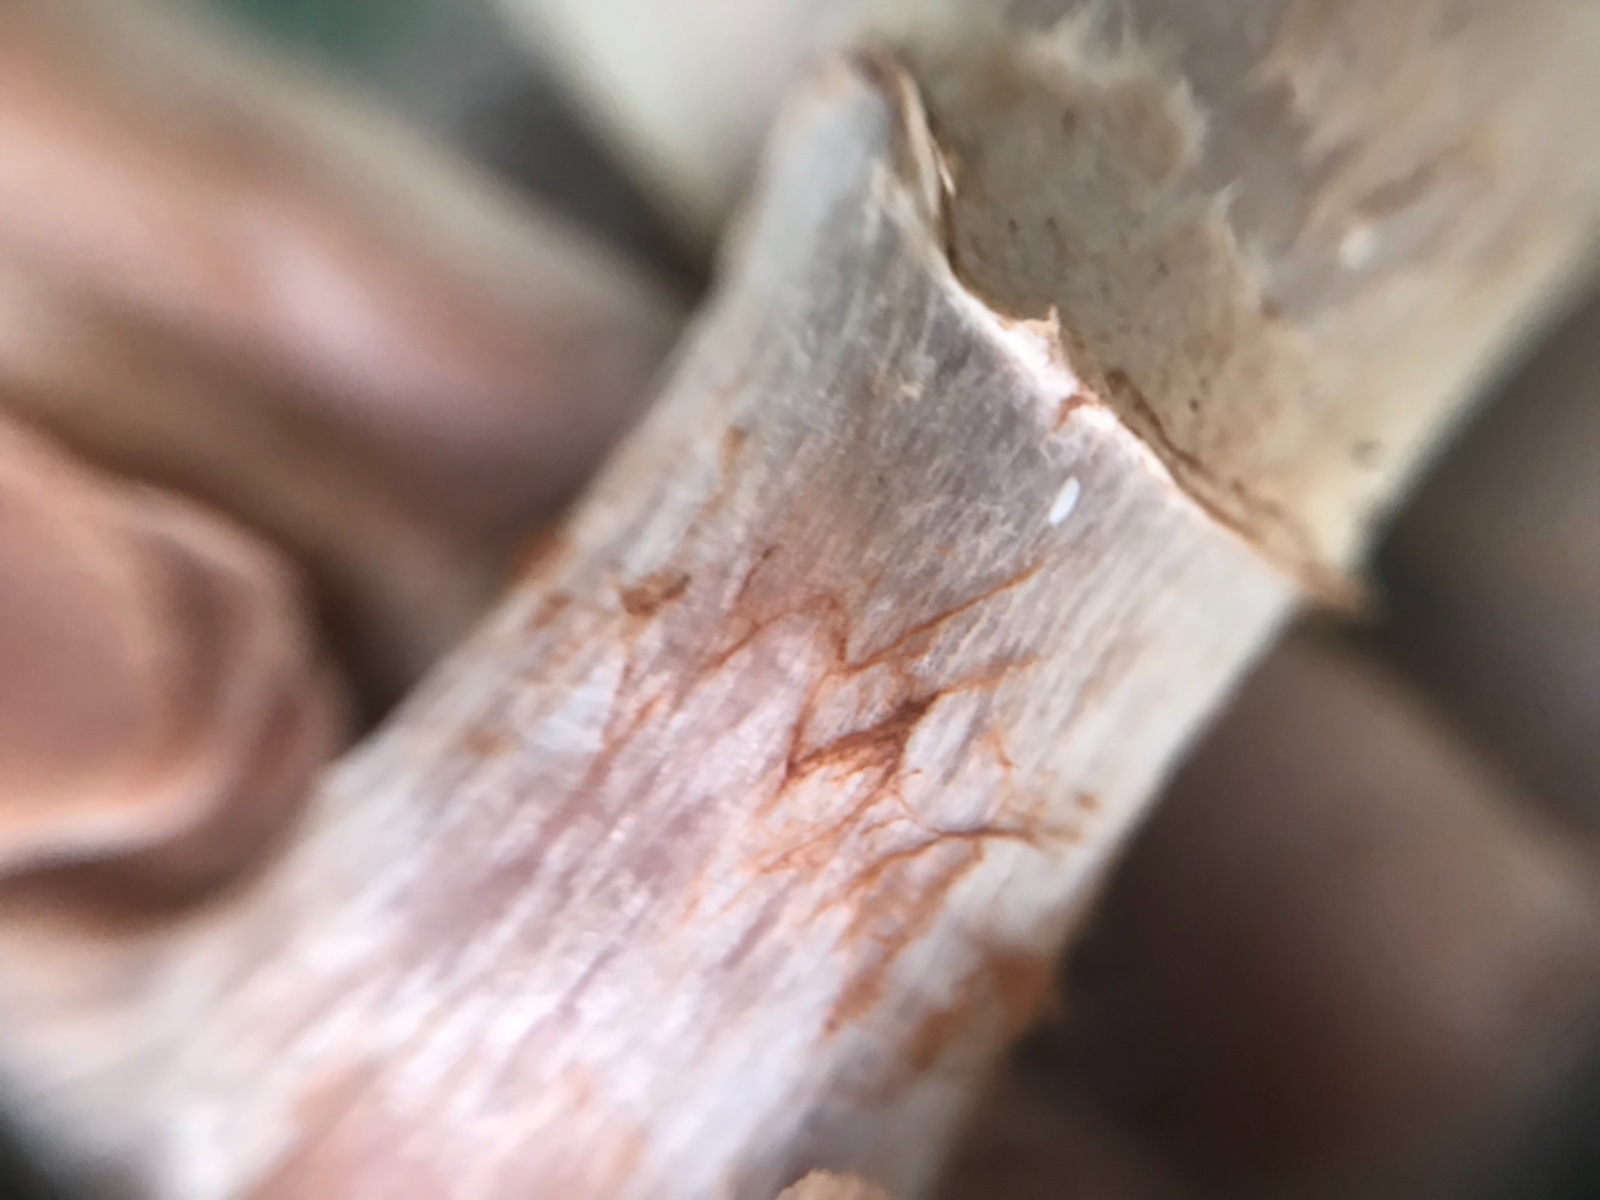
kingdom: Fungi
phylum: Basidiomycota
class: Agaricomycetes
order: Agaricales
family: Cortinariaceae
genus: Cortinarius
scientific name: Cortinarius torvus
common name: champignonagtig slørhat
